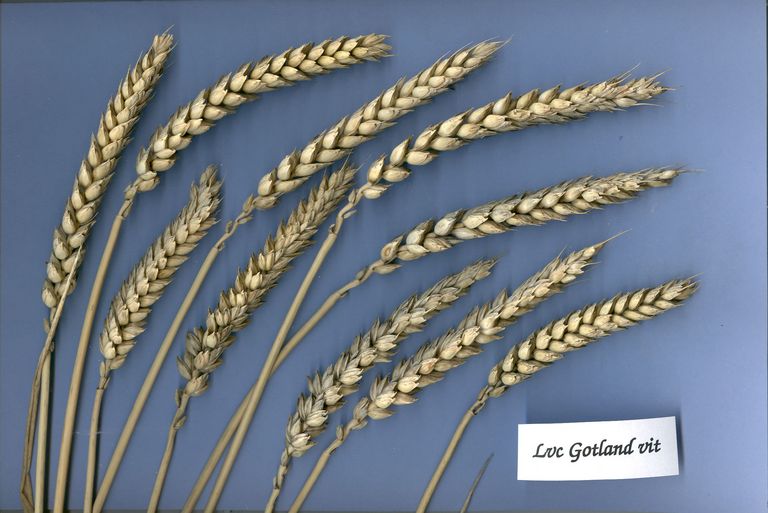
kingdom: Plantae
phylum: Tracheophyta
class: Liliopsida
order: Poales
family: Poaceae
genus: Triticum
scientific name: Triticum aestivum
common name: Common wheat
